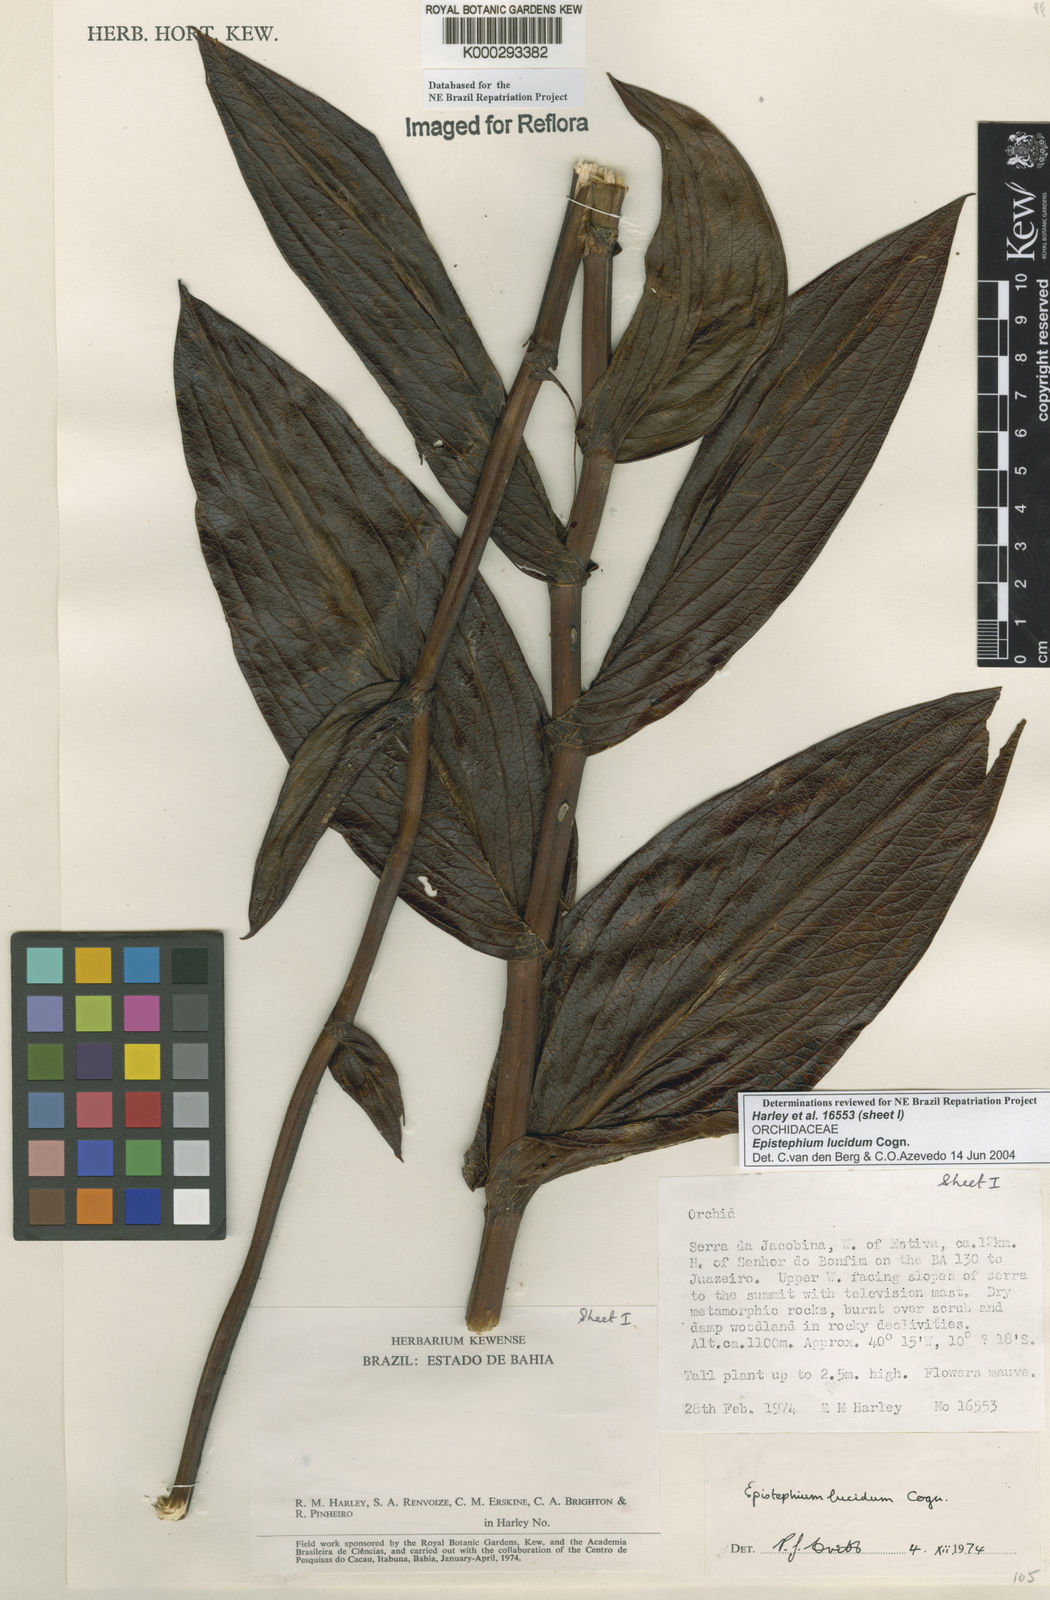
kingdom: Plantae
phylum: Tracheophyta
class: Liliopsida
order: Asparagales
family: Orchidaceae
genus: Epistephium
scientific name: Epistephium williamsii
